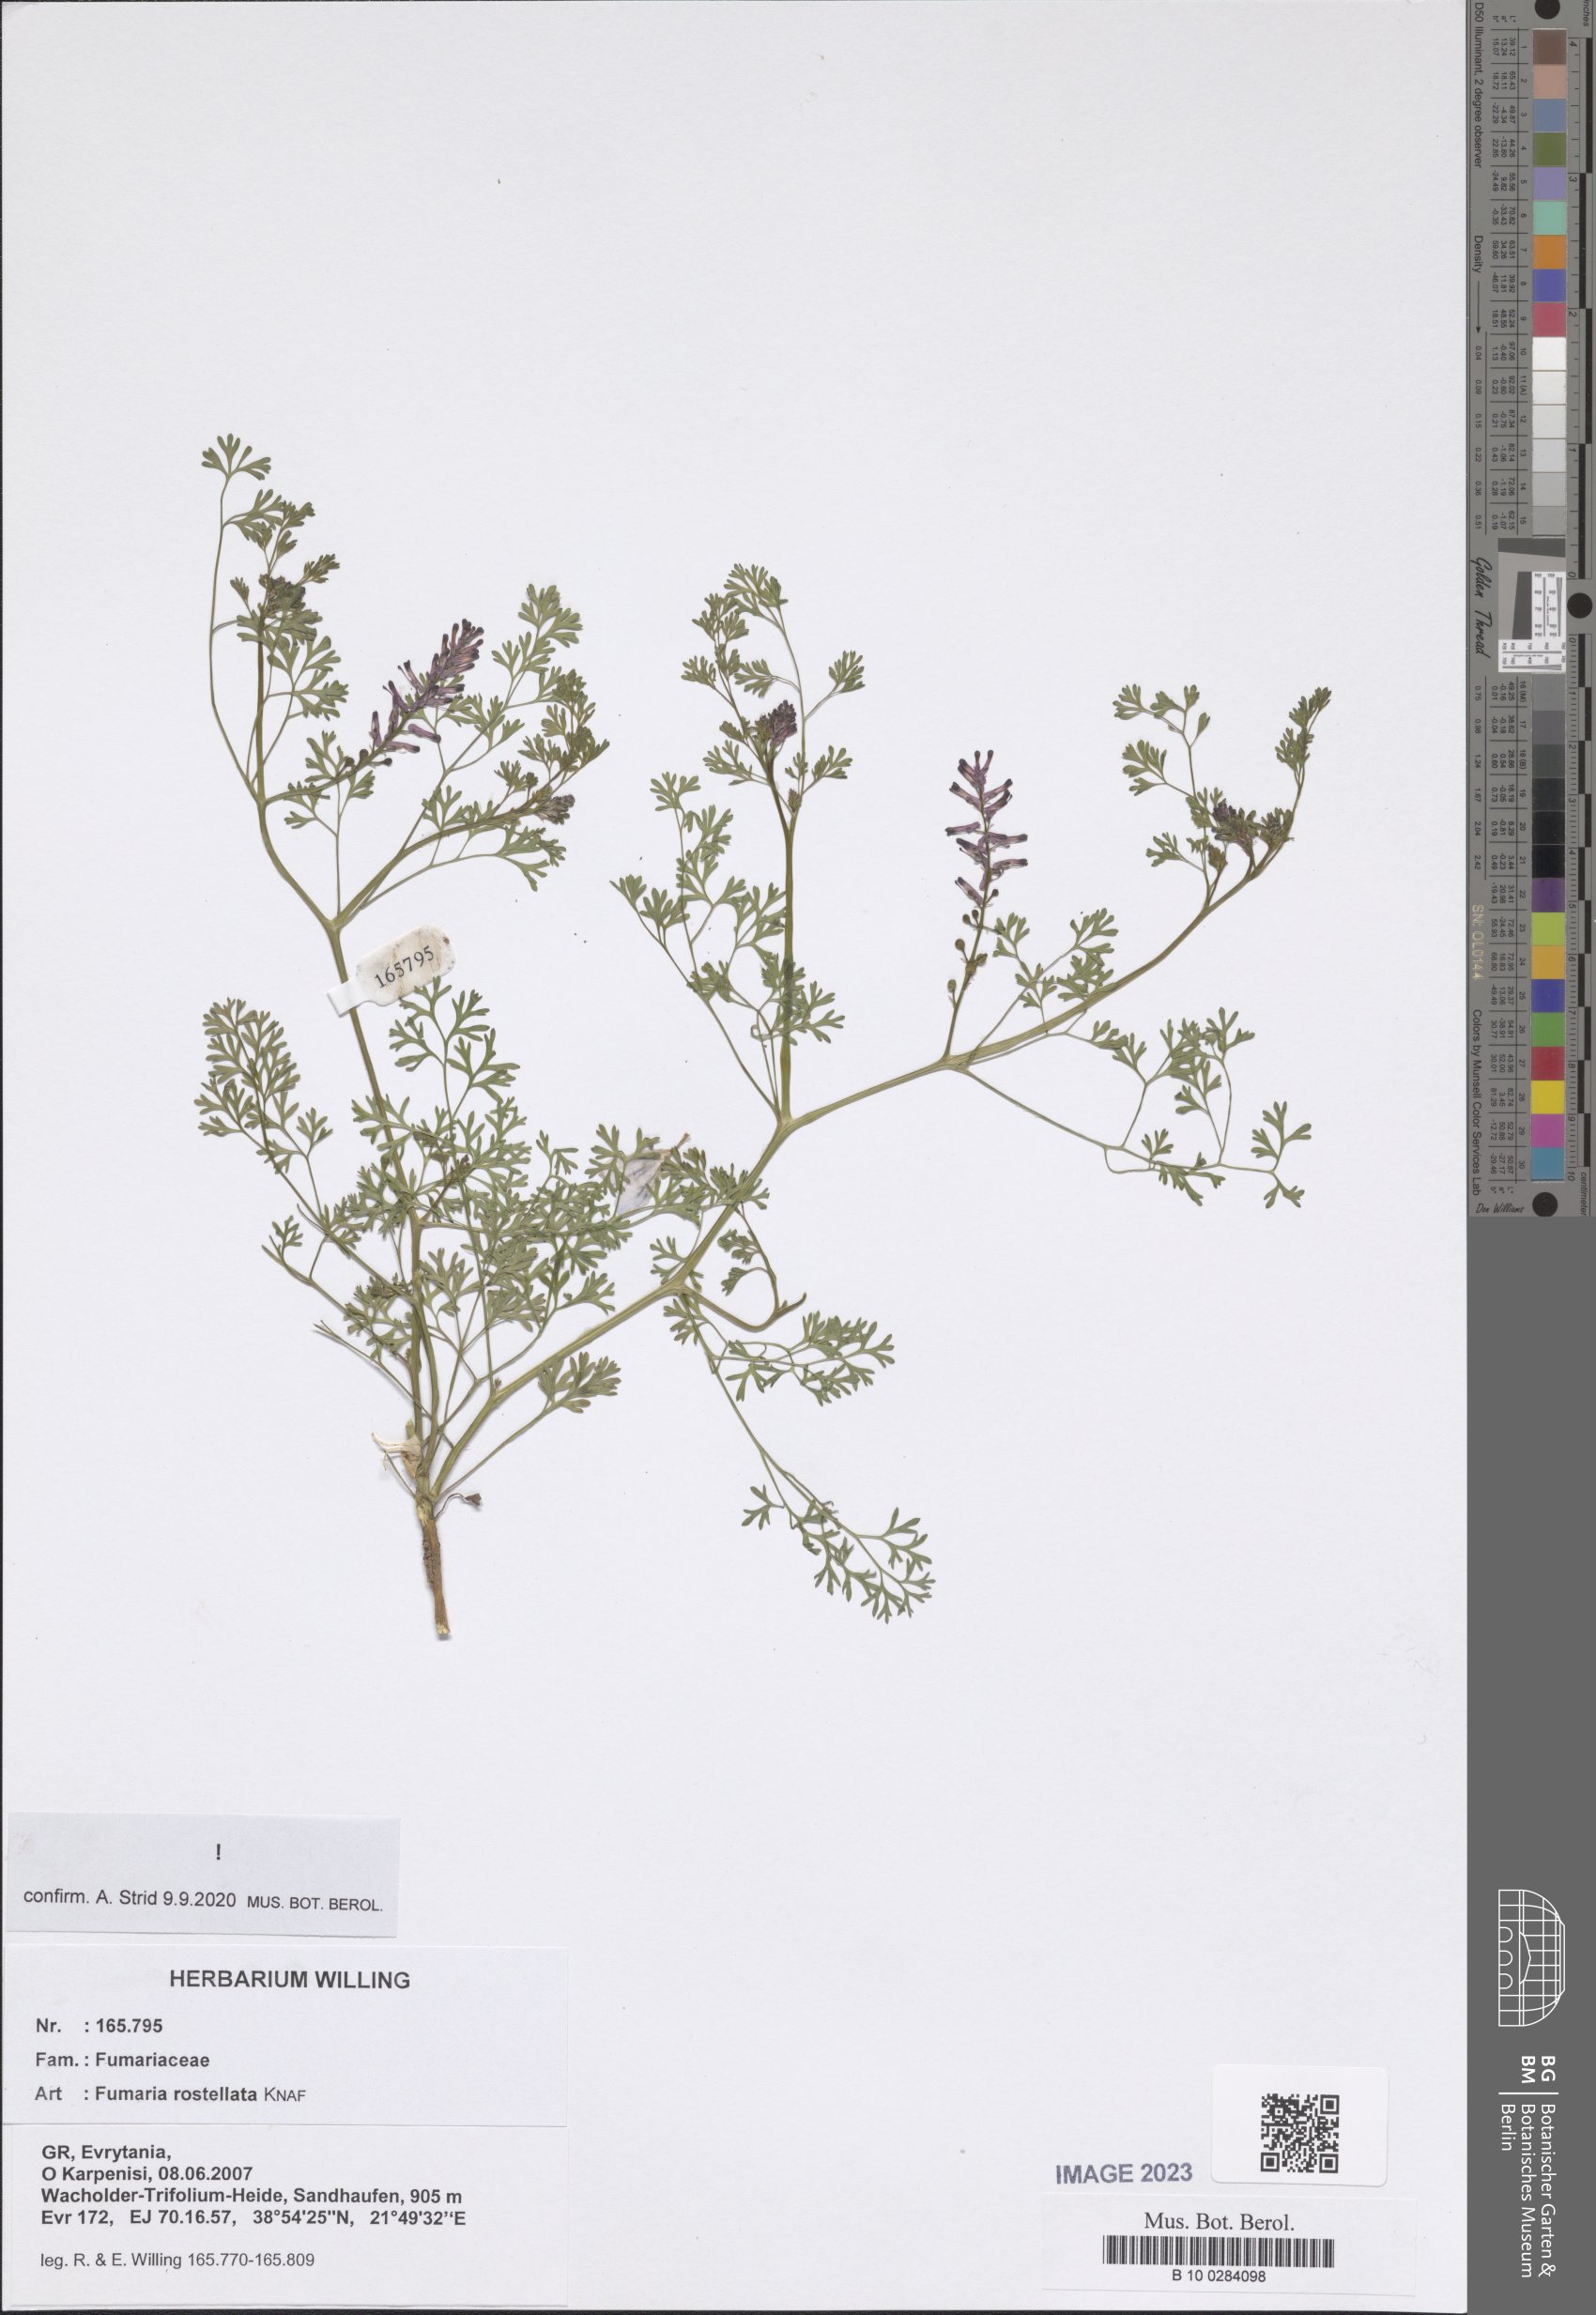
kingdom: Plantae
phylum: Tracheophyta
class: Magnoliopsida
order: Ranunculales
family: Papaveraceae
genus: Fumaria
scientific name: Fumaria rostellata
